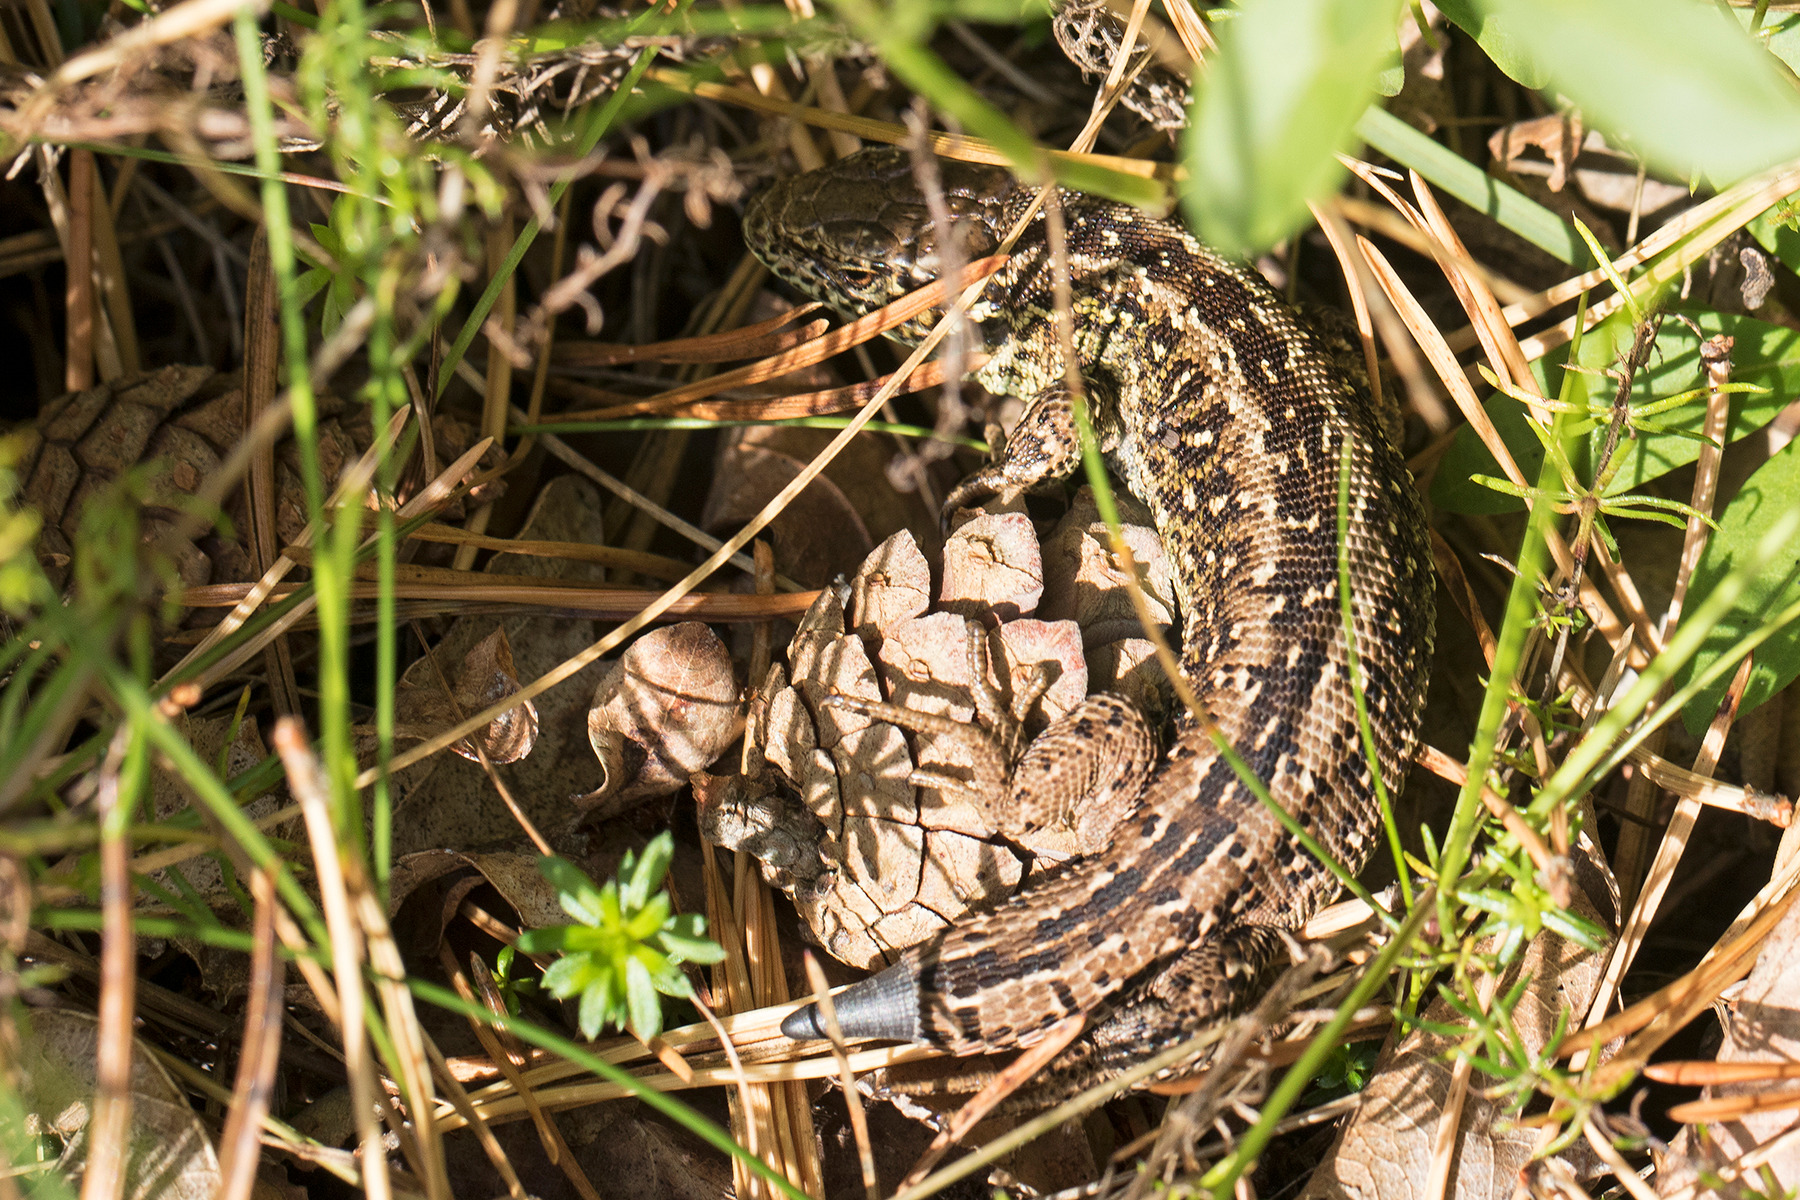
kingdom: Animalia
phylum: Chordata
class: Squamata
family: Lacertidae
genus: Lacerta
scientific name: Lacerta agilis
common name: Markfirben
